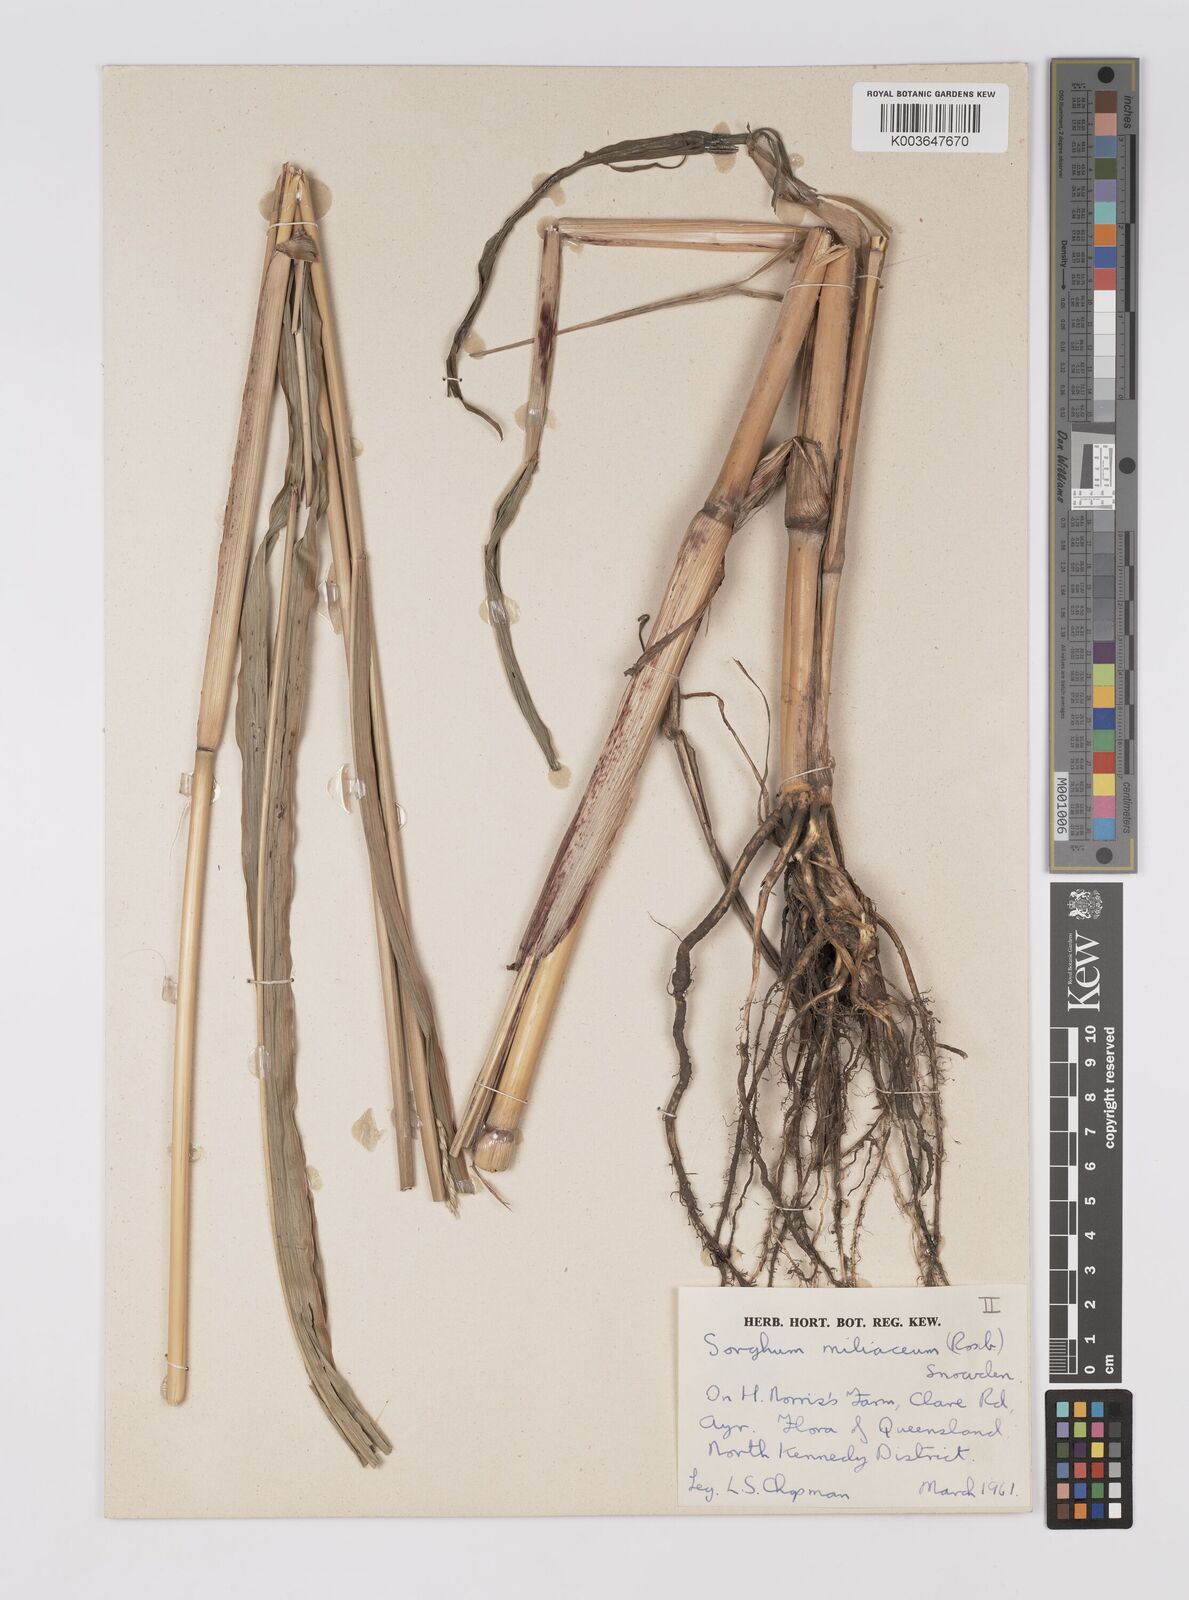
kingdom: Plantae
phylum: Tracheophyta
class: Liliopsida
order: Poales
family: Poaceae
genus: Sorghum
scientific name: Sorghum halepense
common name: Johnson-grass
